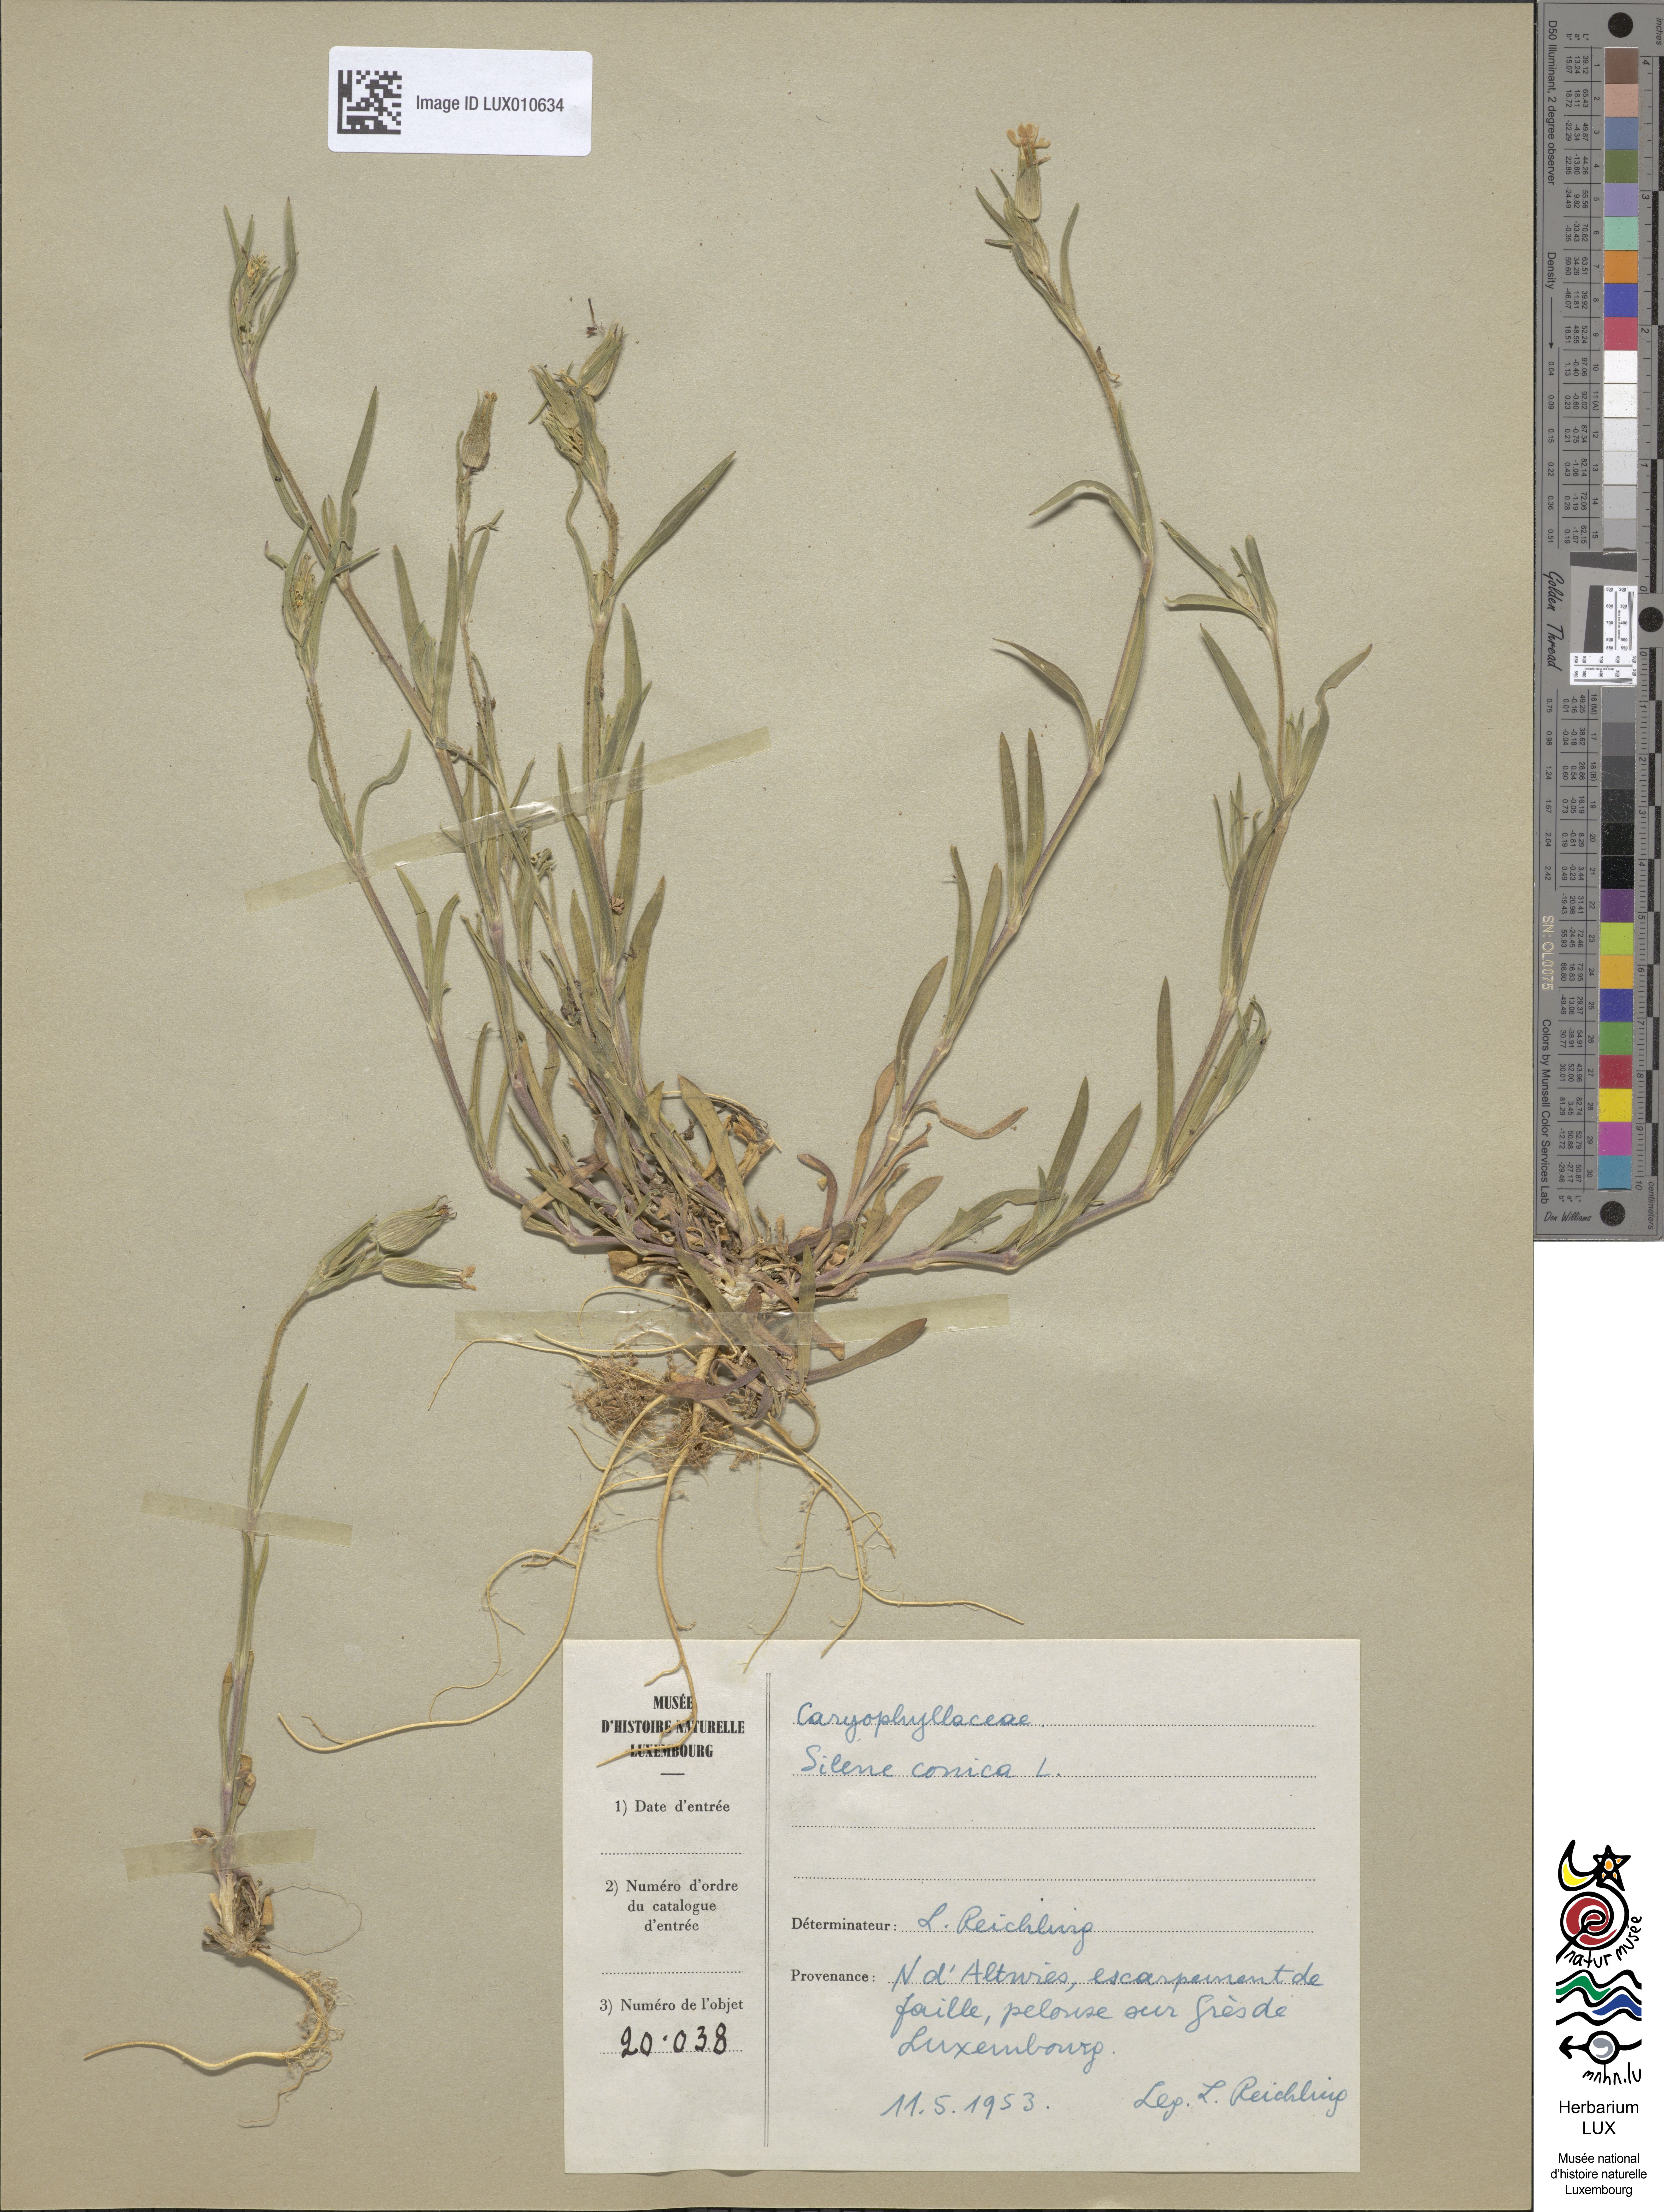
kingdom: Plantae
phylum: Tracheophyta
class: Magnoliopsida
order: Caryophyllales
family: Caryophyllaceae
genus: Silene
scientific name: Silene conica
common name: Sand catchfly
